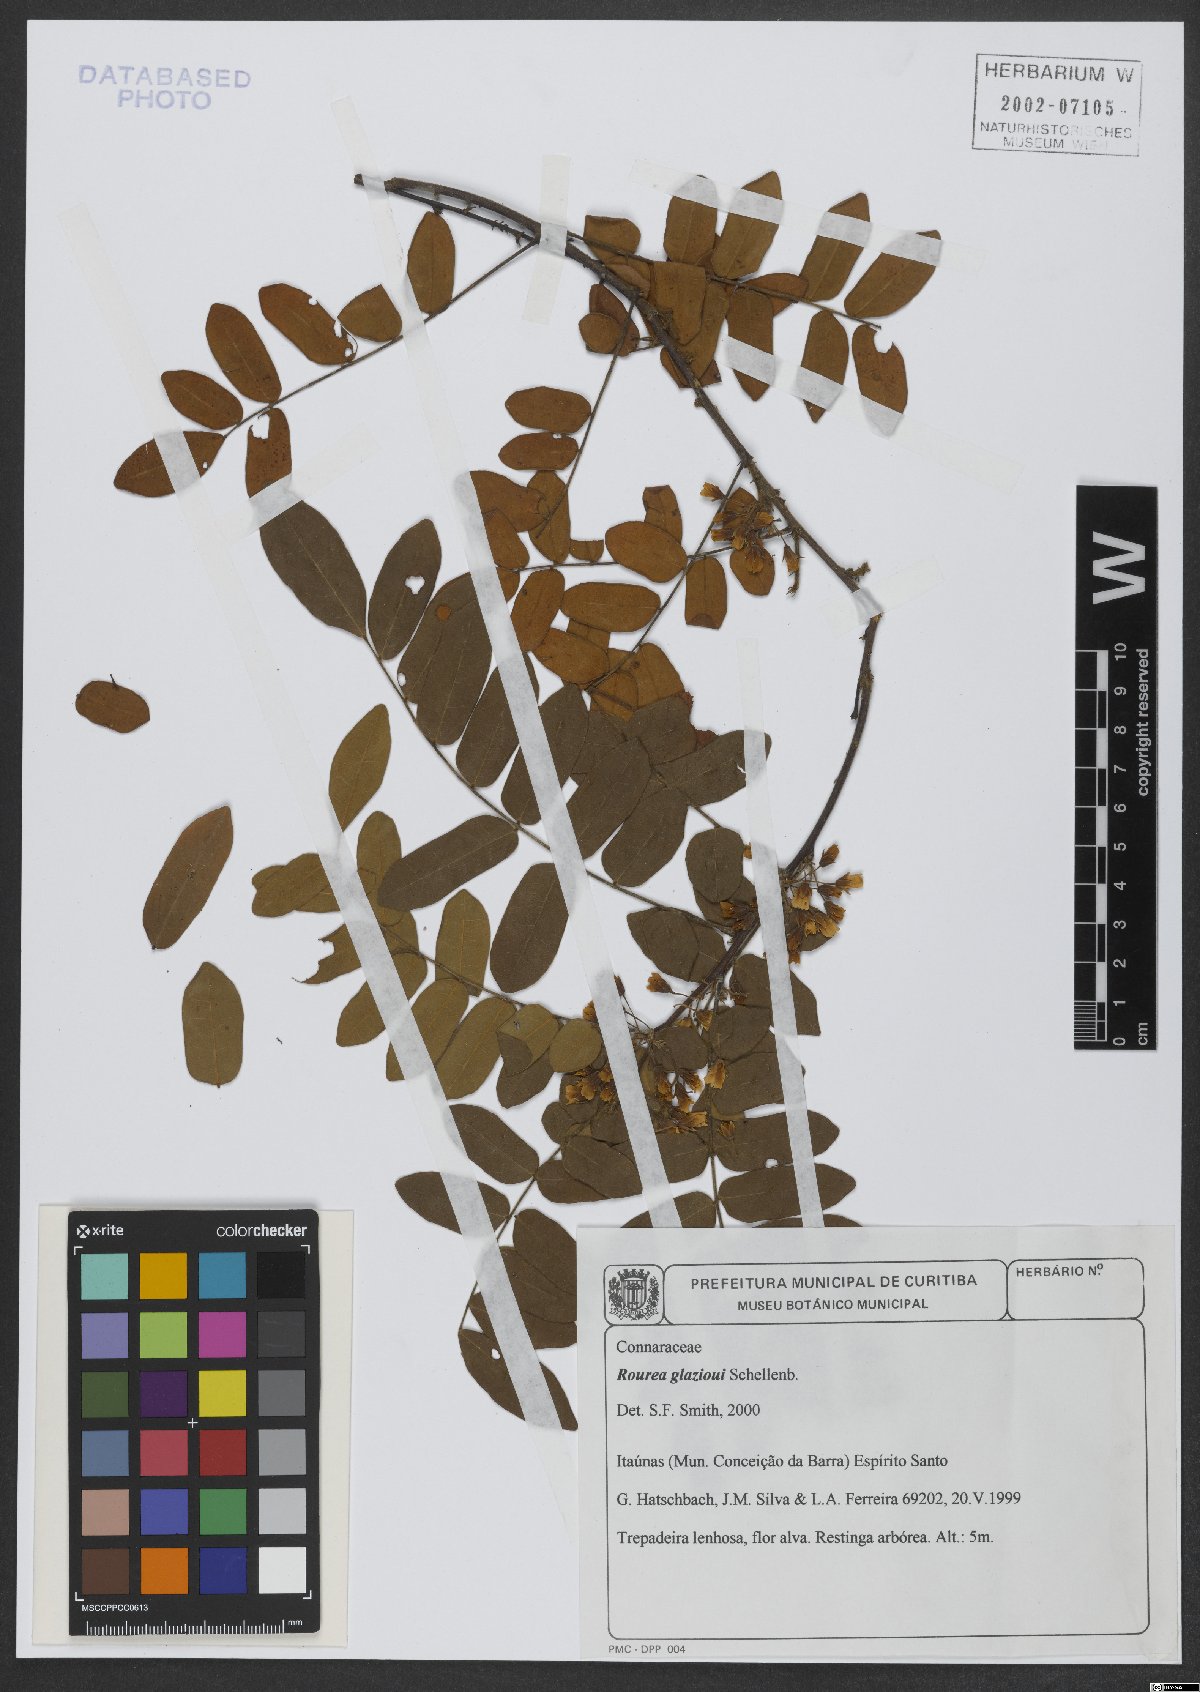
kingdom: Plantae
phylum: Tracheophyta
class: Magnoliopsida
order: Oxalidales
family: Connaraceae
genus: Rourea
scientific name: Rourea glazioui
